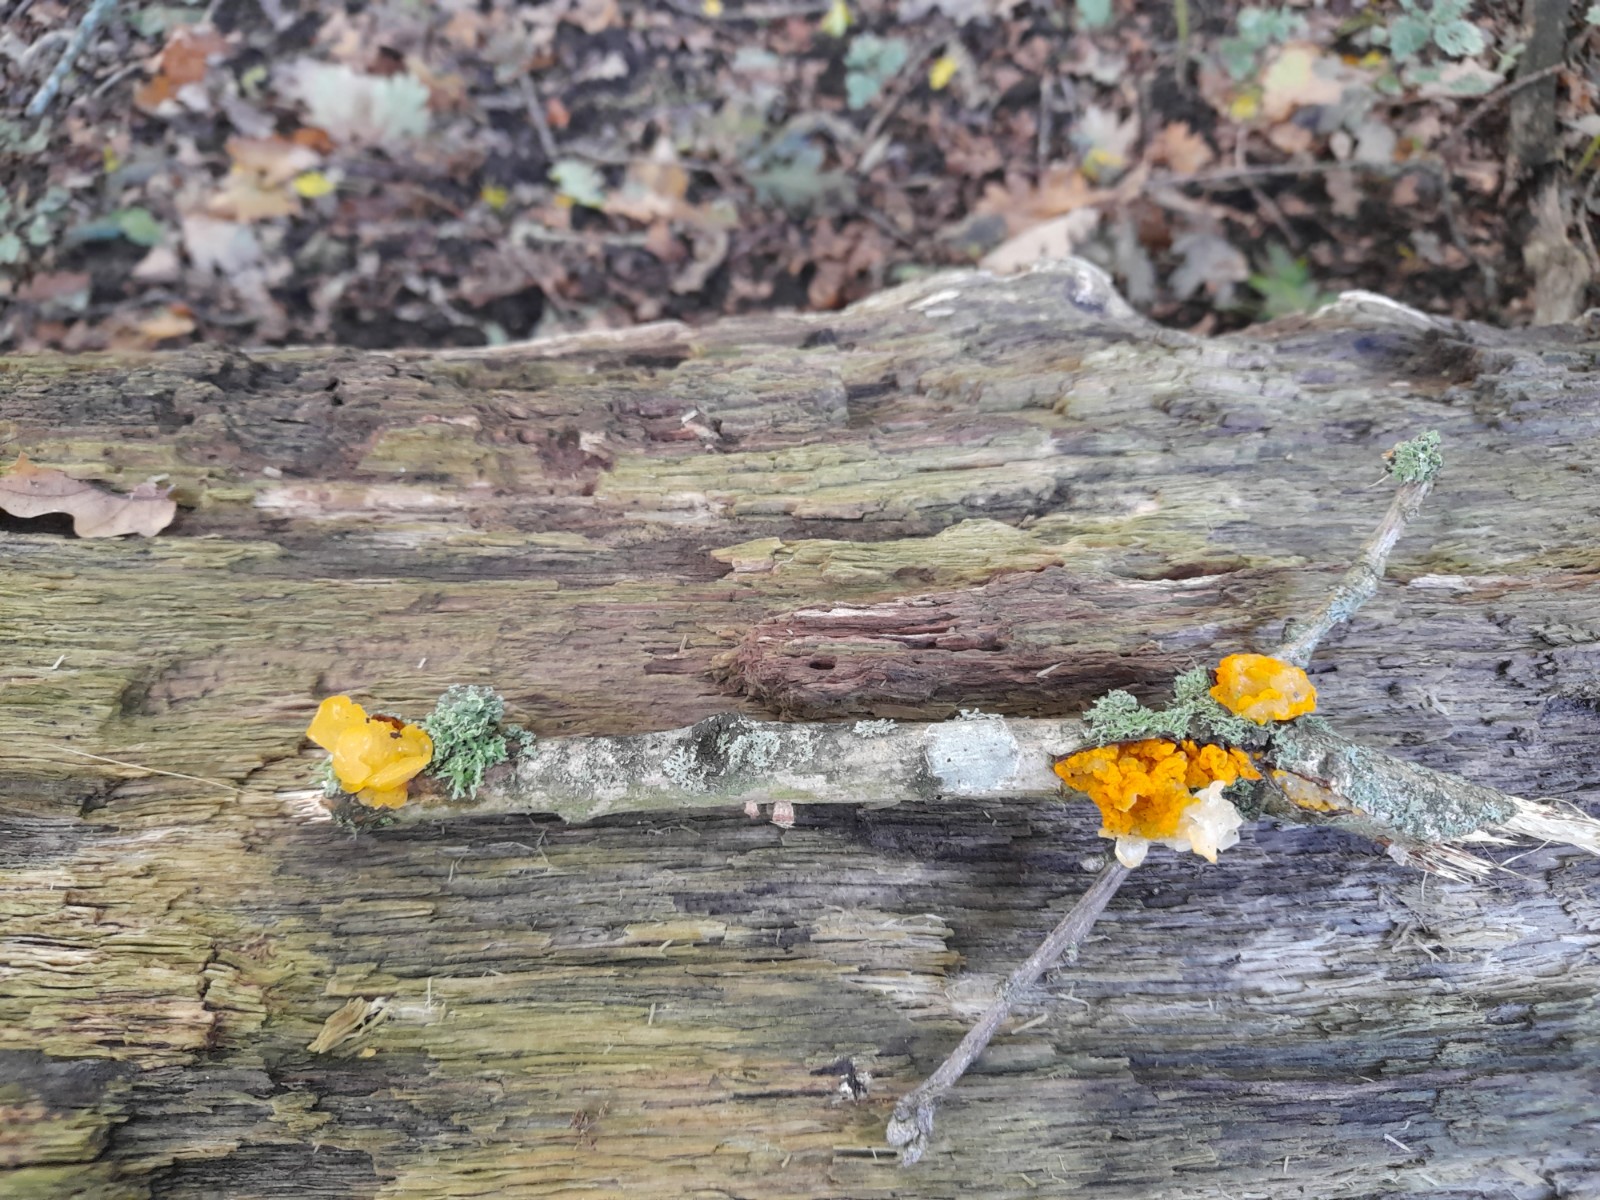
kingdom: Fungi
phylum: Basidiomycota
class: Tremellomycetes
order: Tremellales
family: Tremellaceae
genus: Tremella
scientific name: Tremella mesenterica
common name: gul bævresvamp
